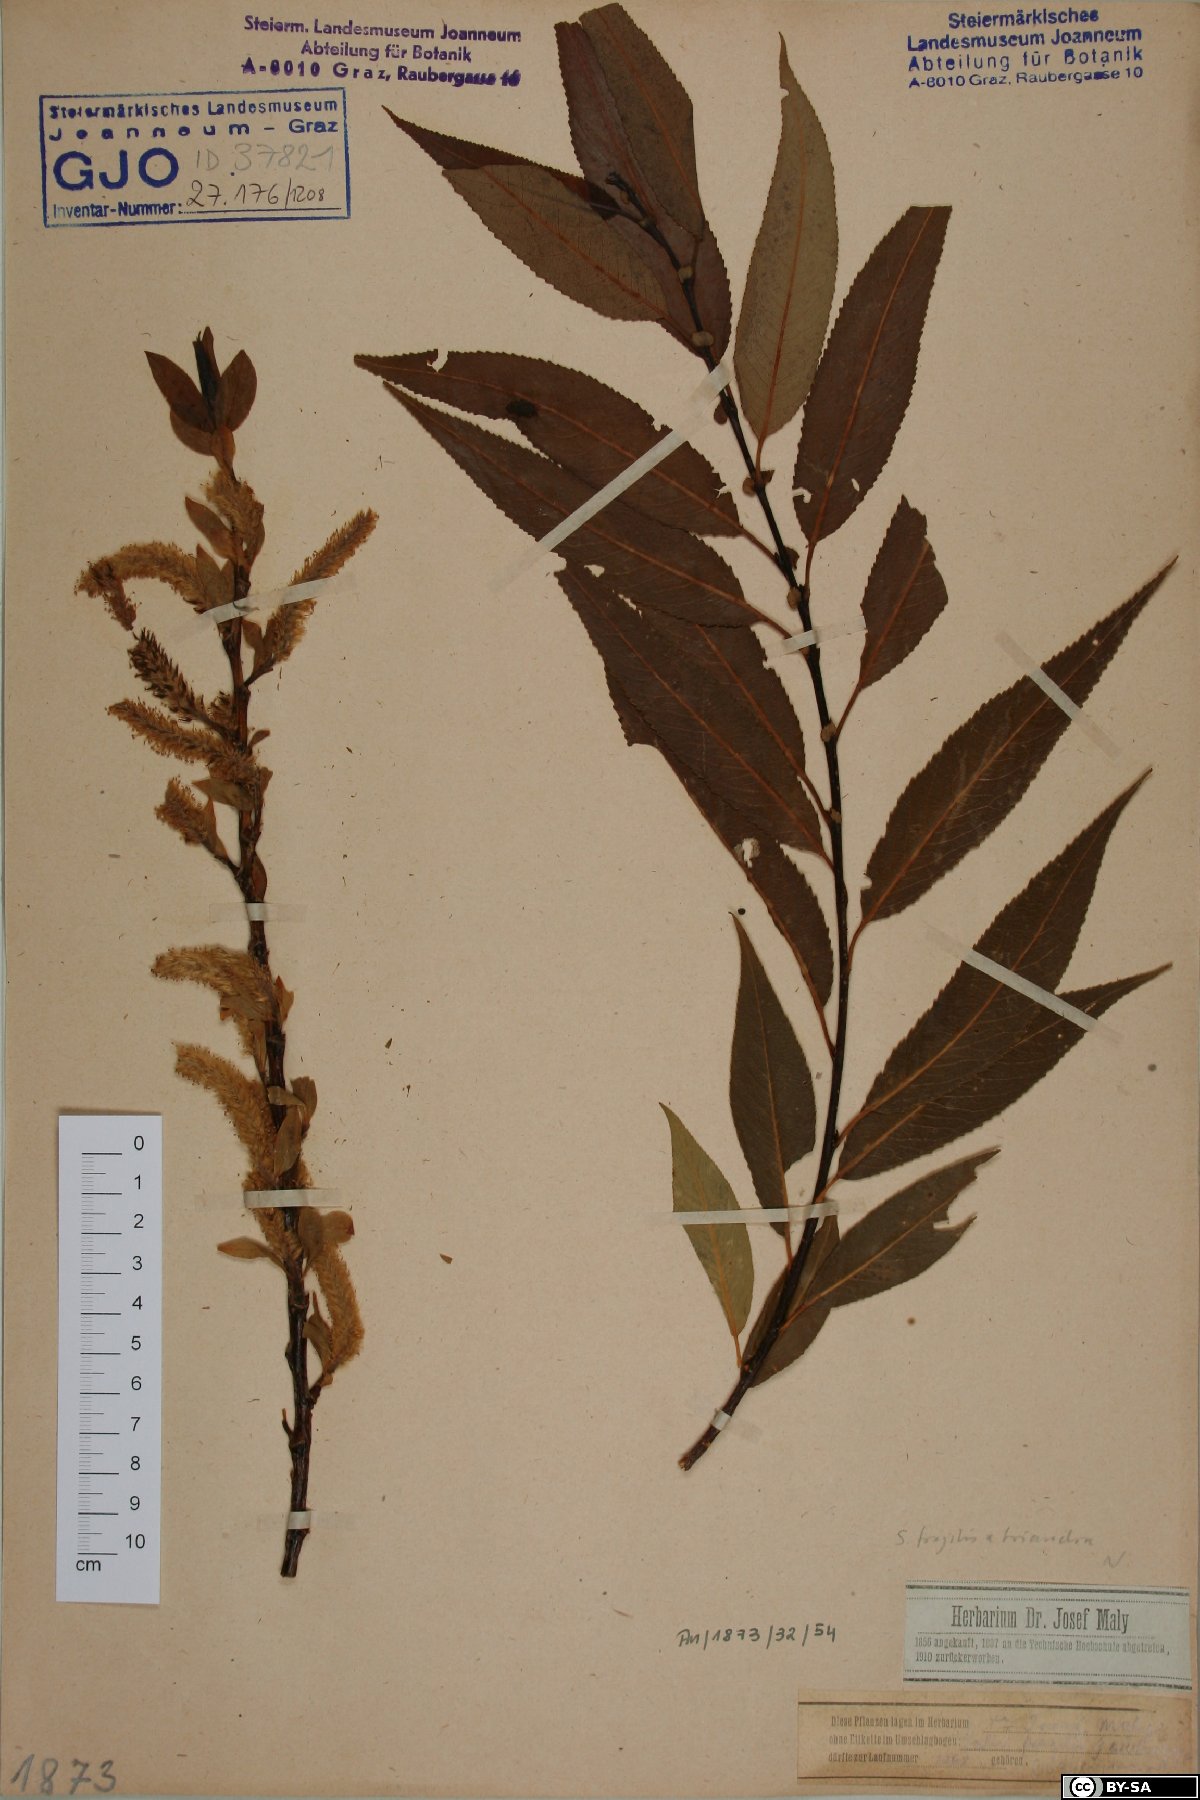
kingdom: Plantae
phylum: Tracheophyta
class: Magnoliopsida
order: Malpighiales
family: Salicaceae
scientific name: Salicaceae
